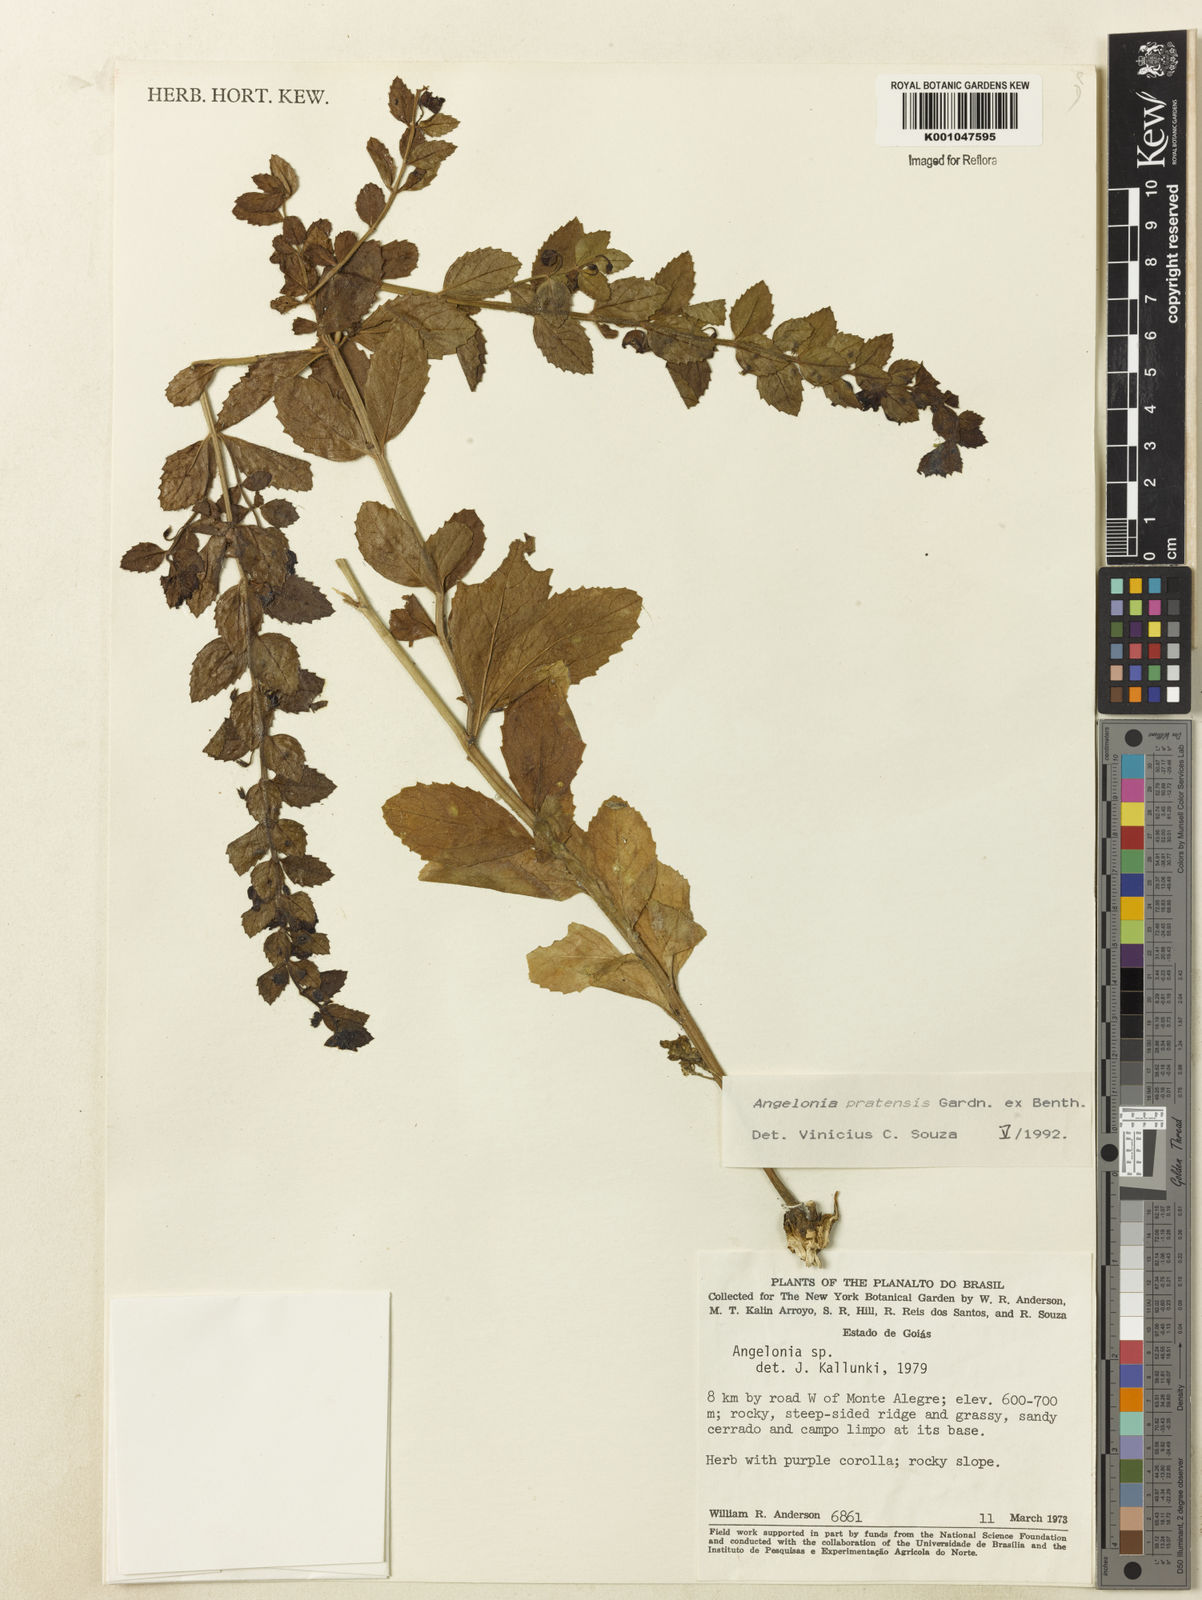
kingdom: Plantae
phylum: Tracheophyta
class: Magnoliopsida
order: Lamiales
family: Plantaginaceae
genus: Angelonia
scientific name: Angelonia pratensis
